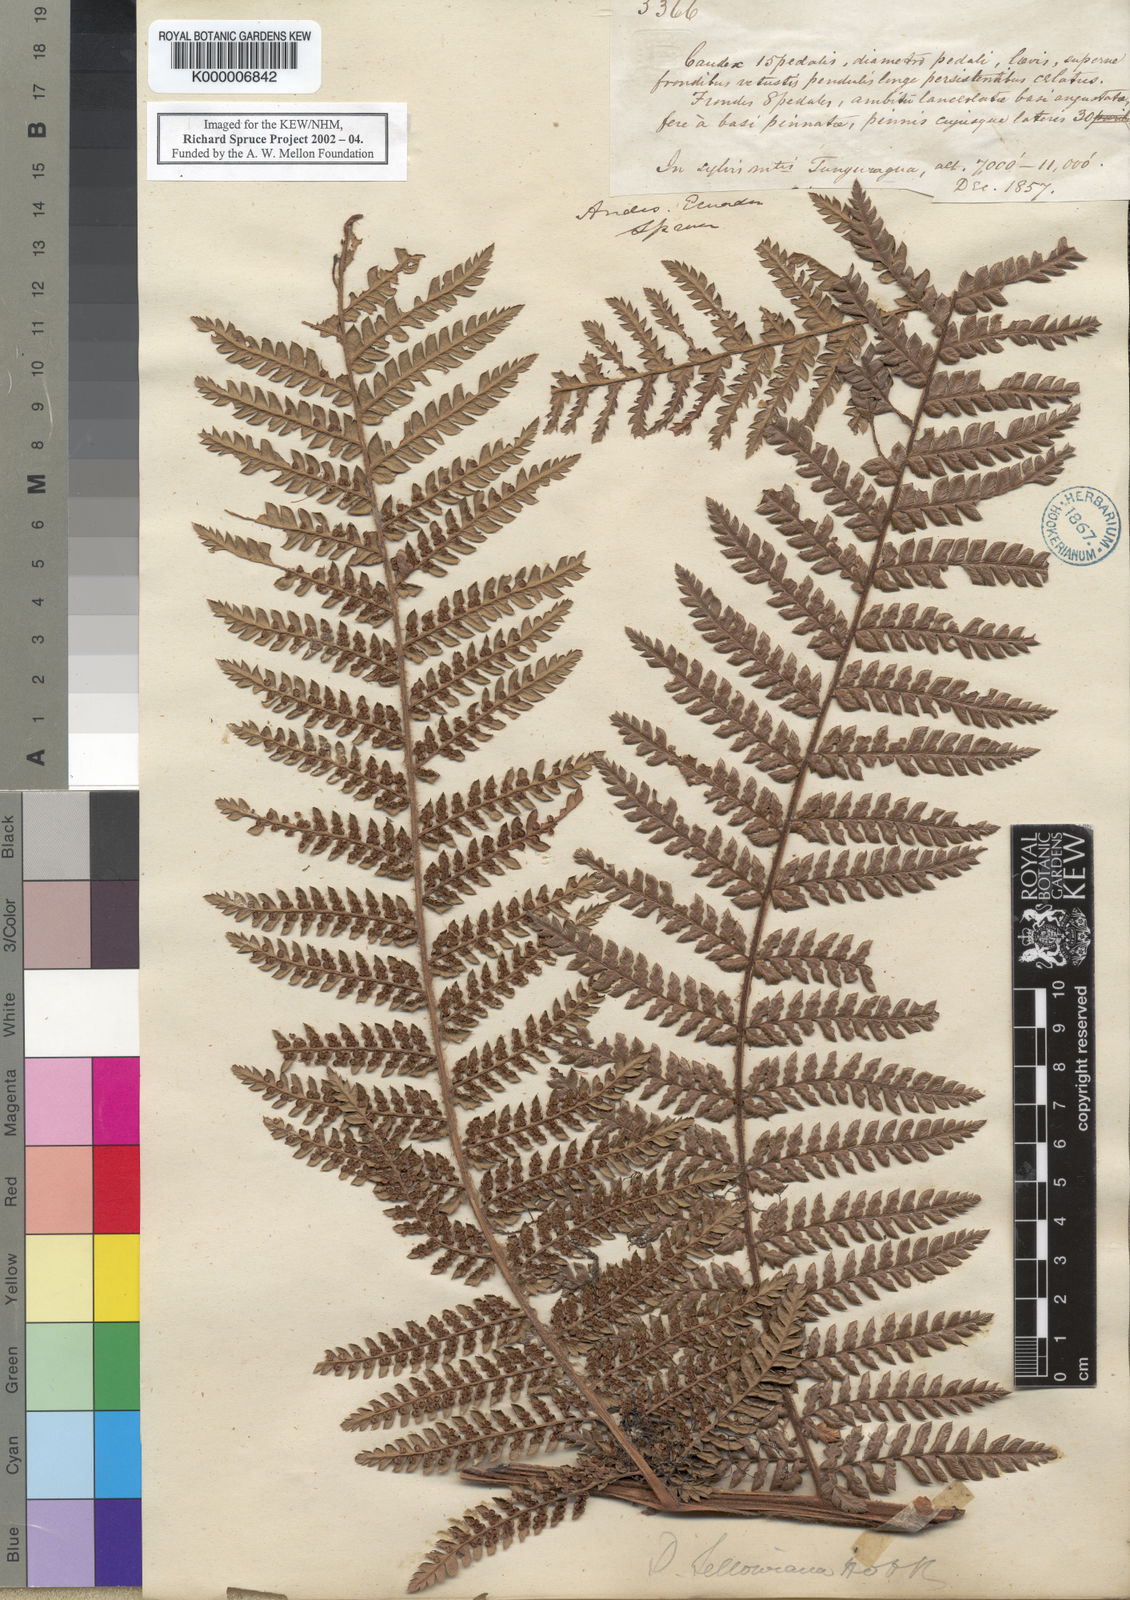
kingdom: Plantae
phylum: Tracheophyta
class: Polypodiopsida
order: Cyatheales
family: Dicksoniaceae
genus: Dicksonia
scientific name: Dicksonia sellowiana
